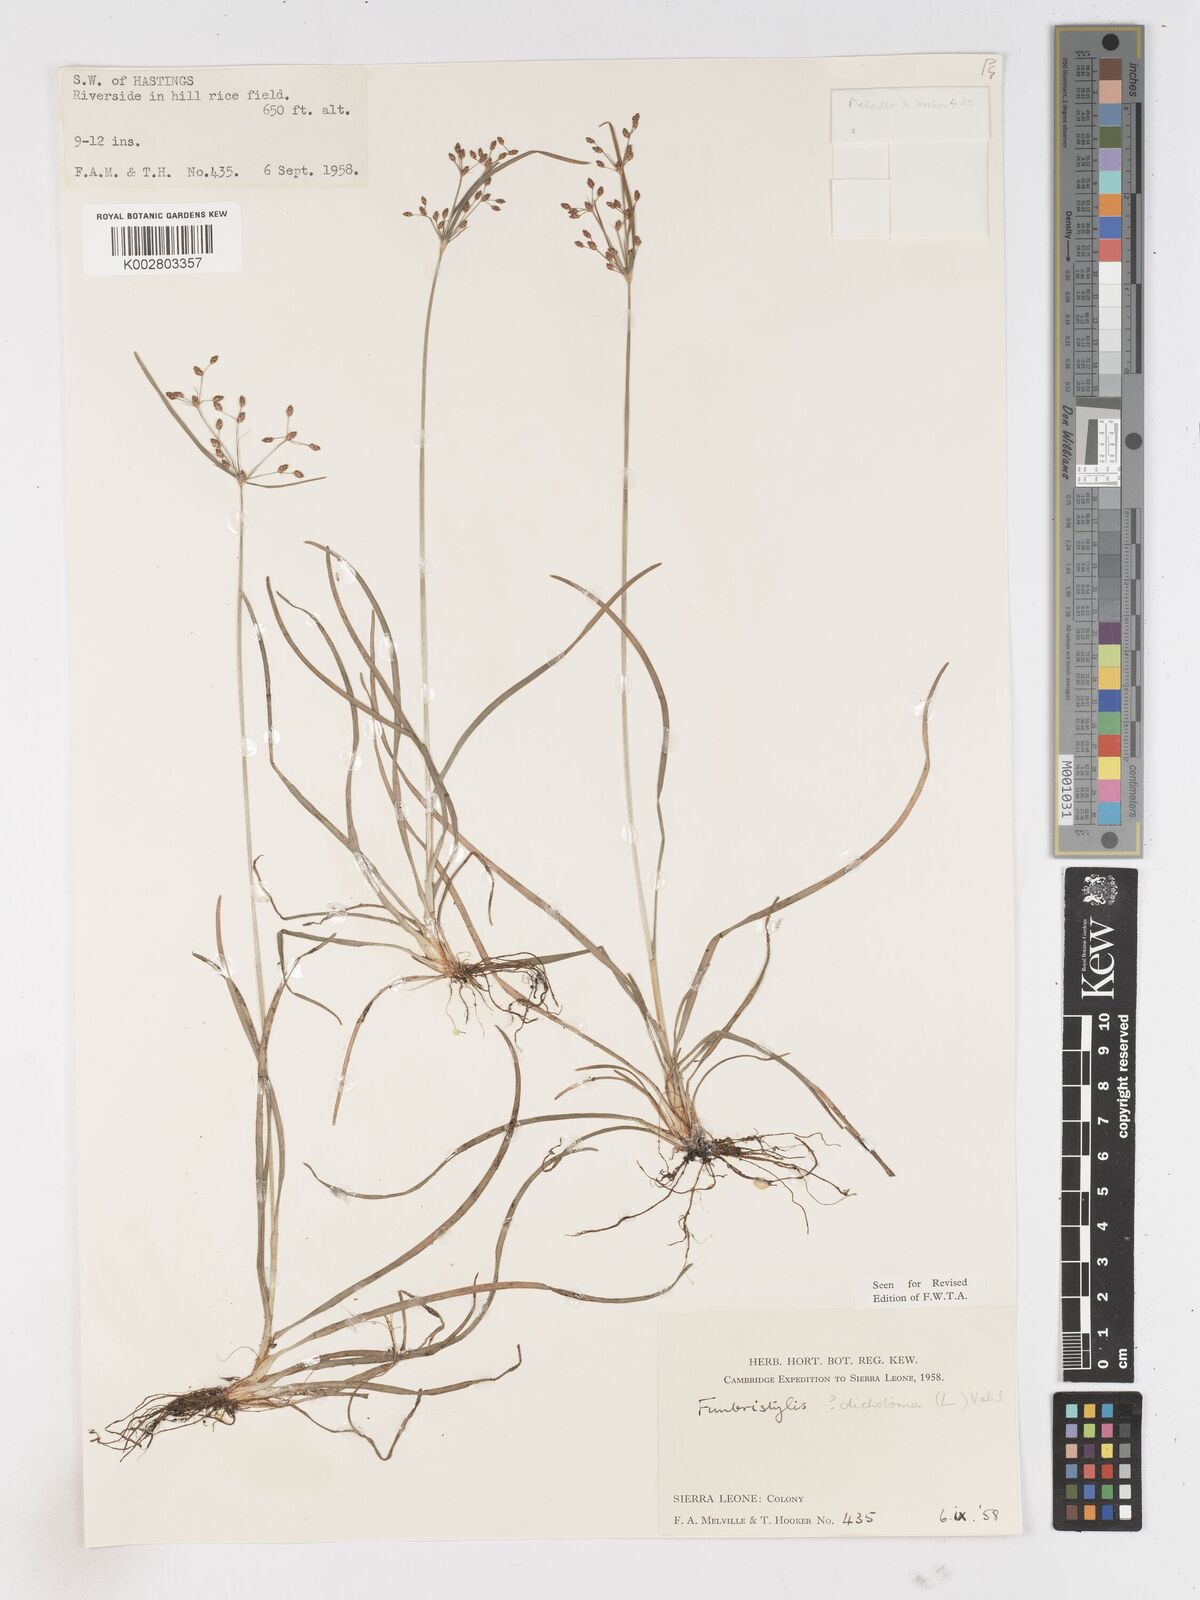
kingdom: Plantae
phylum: Tracheophyta
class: Liliopsida
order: Poales
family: Cyperaceae
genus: Fimbristylis
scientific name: Fimbristylis dichotoma
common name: Forked fimbry
